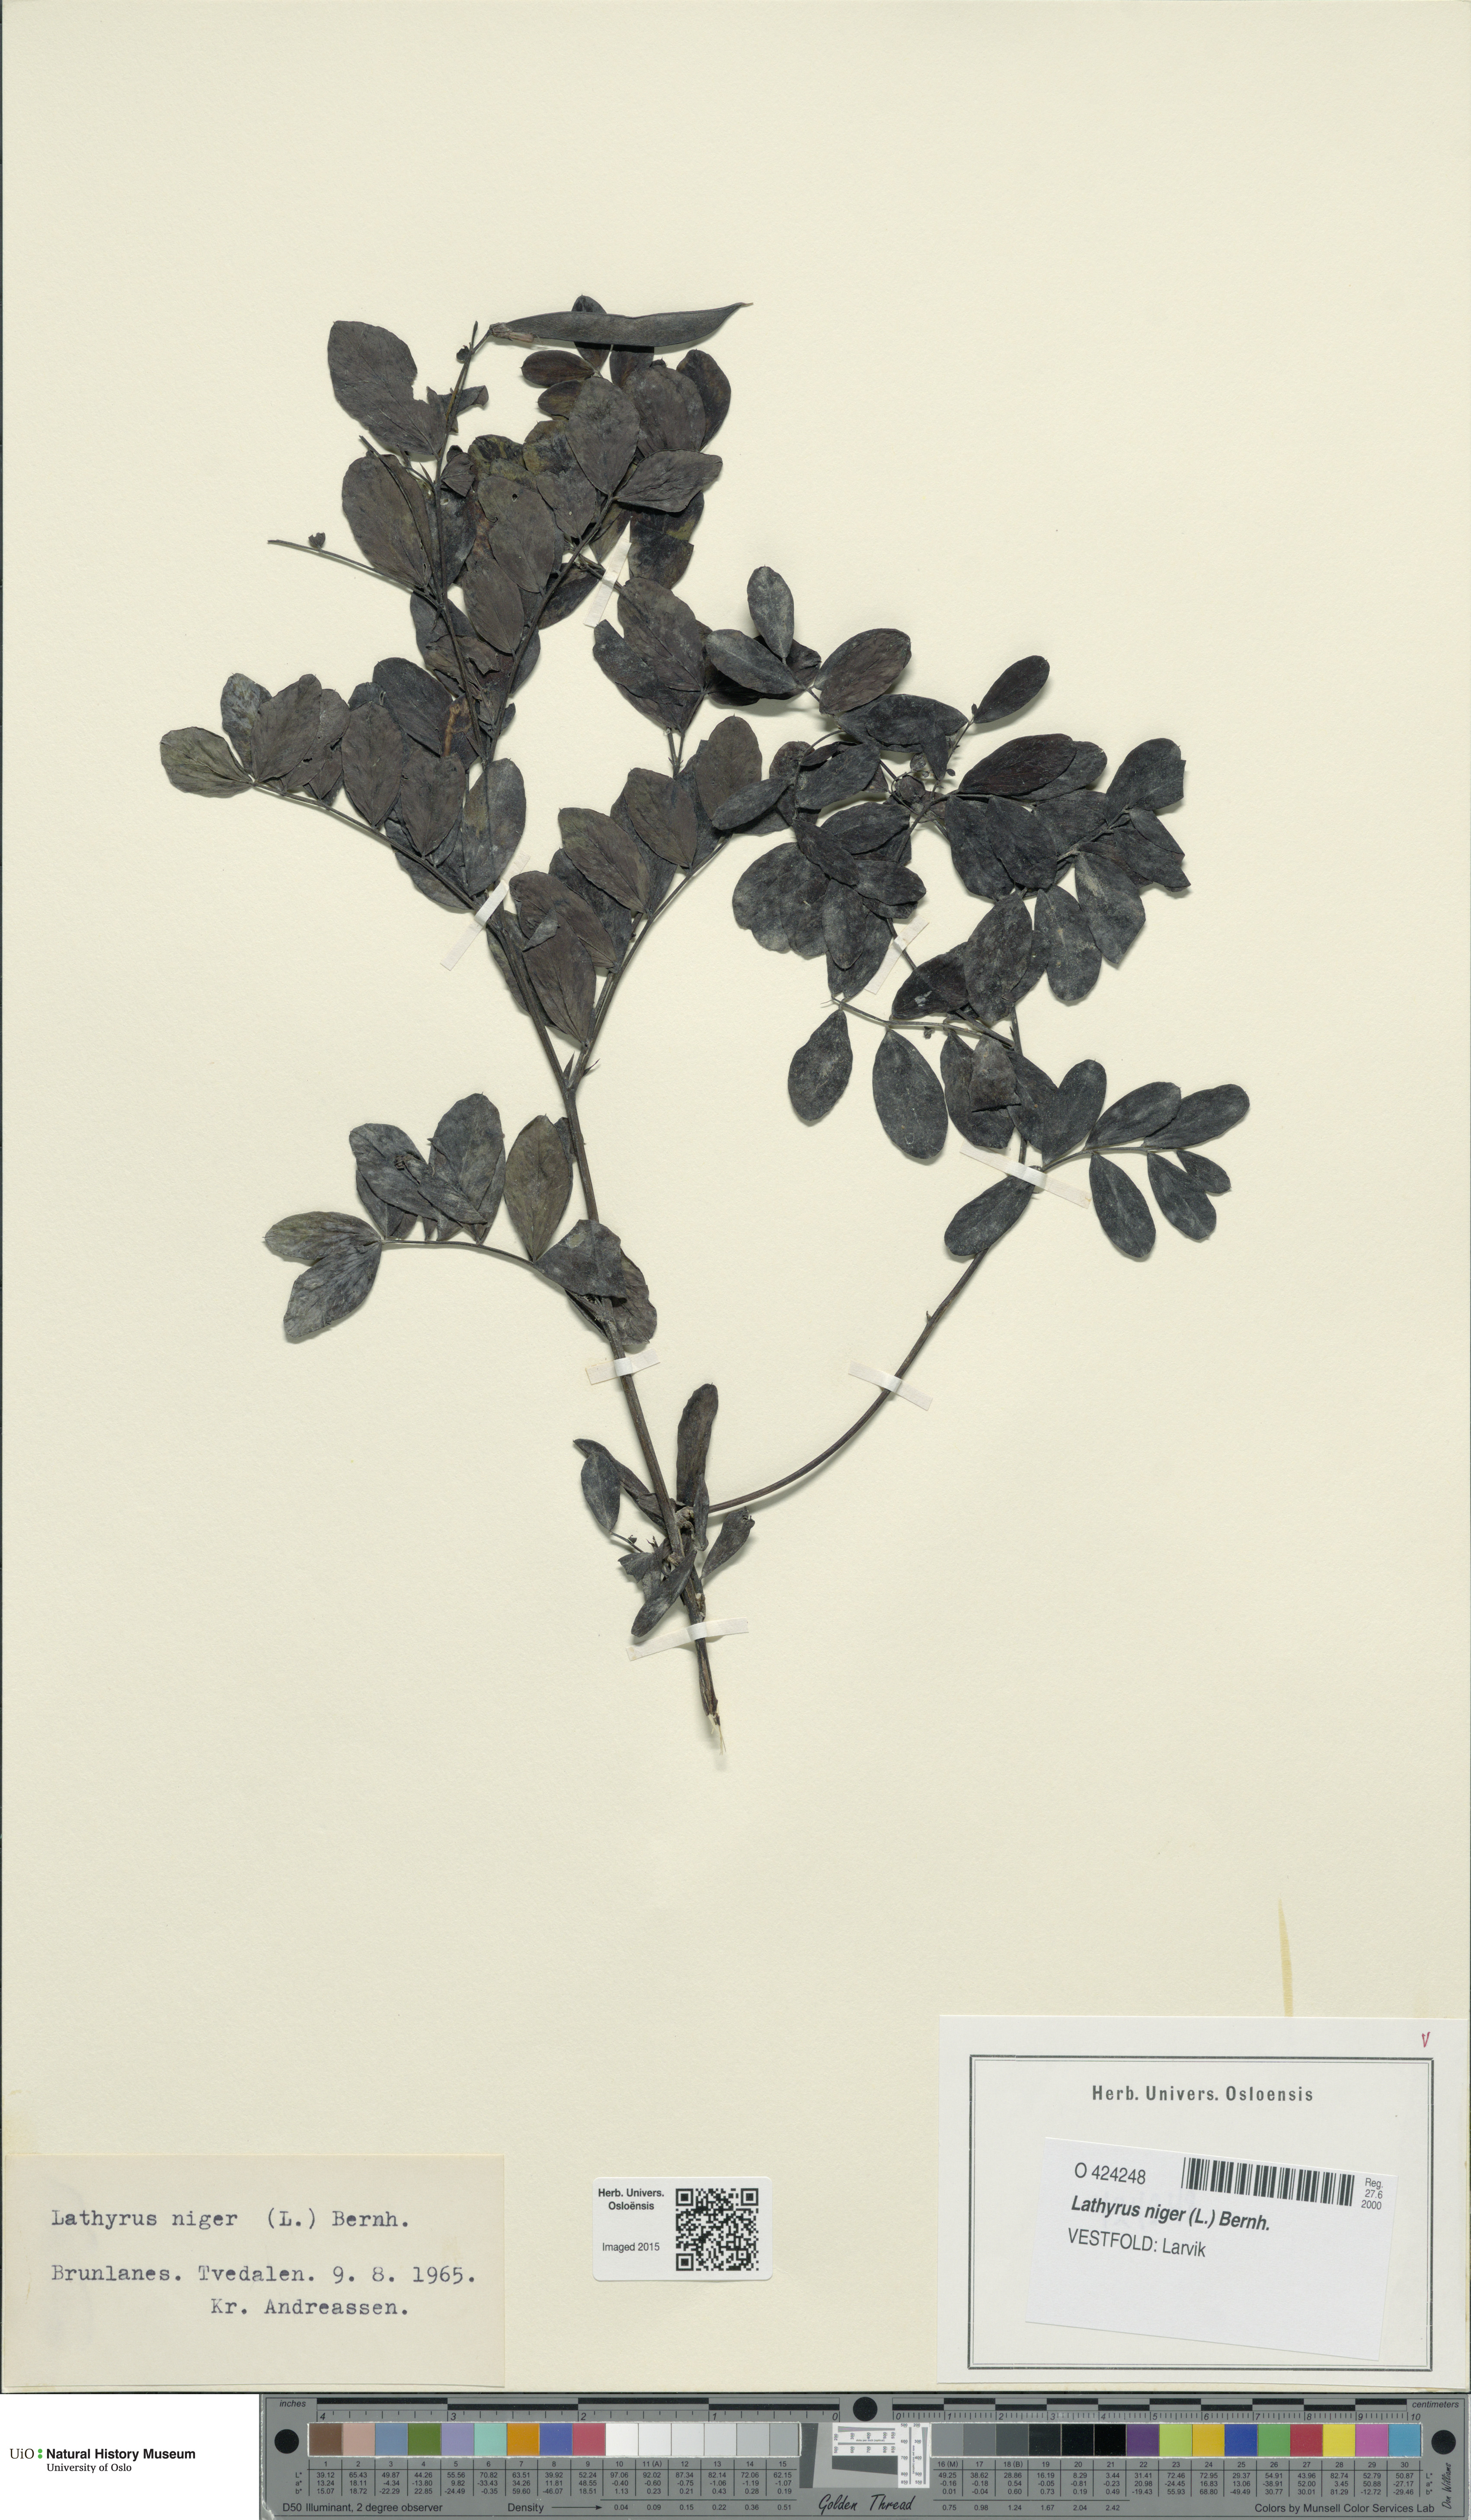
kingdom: Plantae
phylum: Tracheophyta
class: Magnoliopsida
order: Fabales
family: Fabaceae
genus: Lathyrus
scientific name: Lathyrus niger
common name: Black pea
